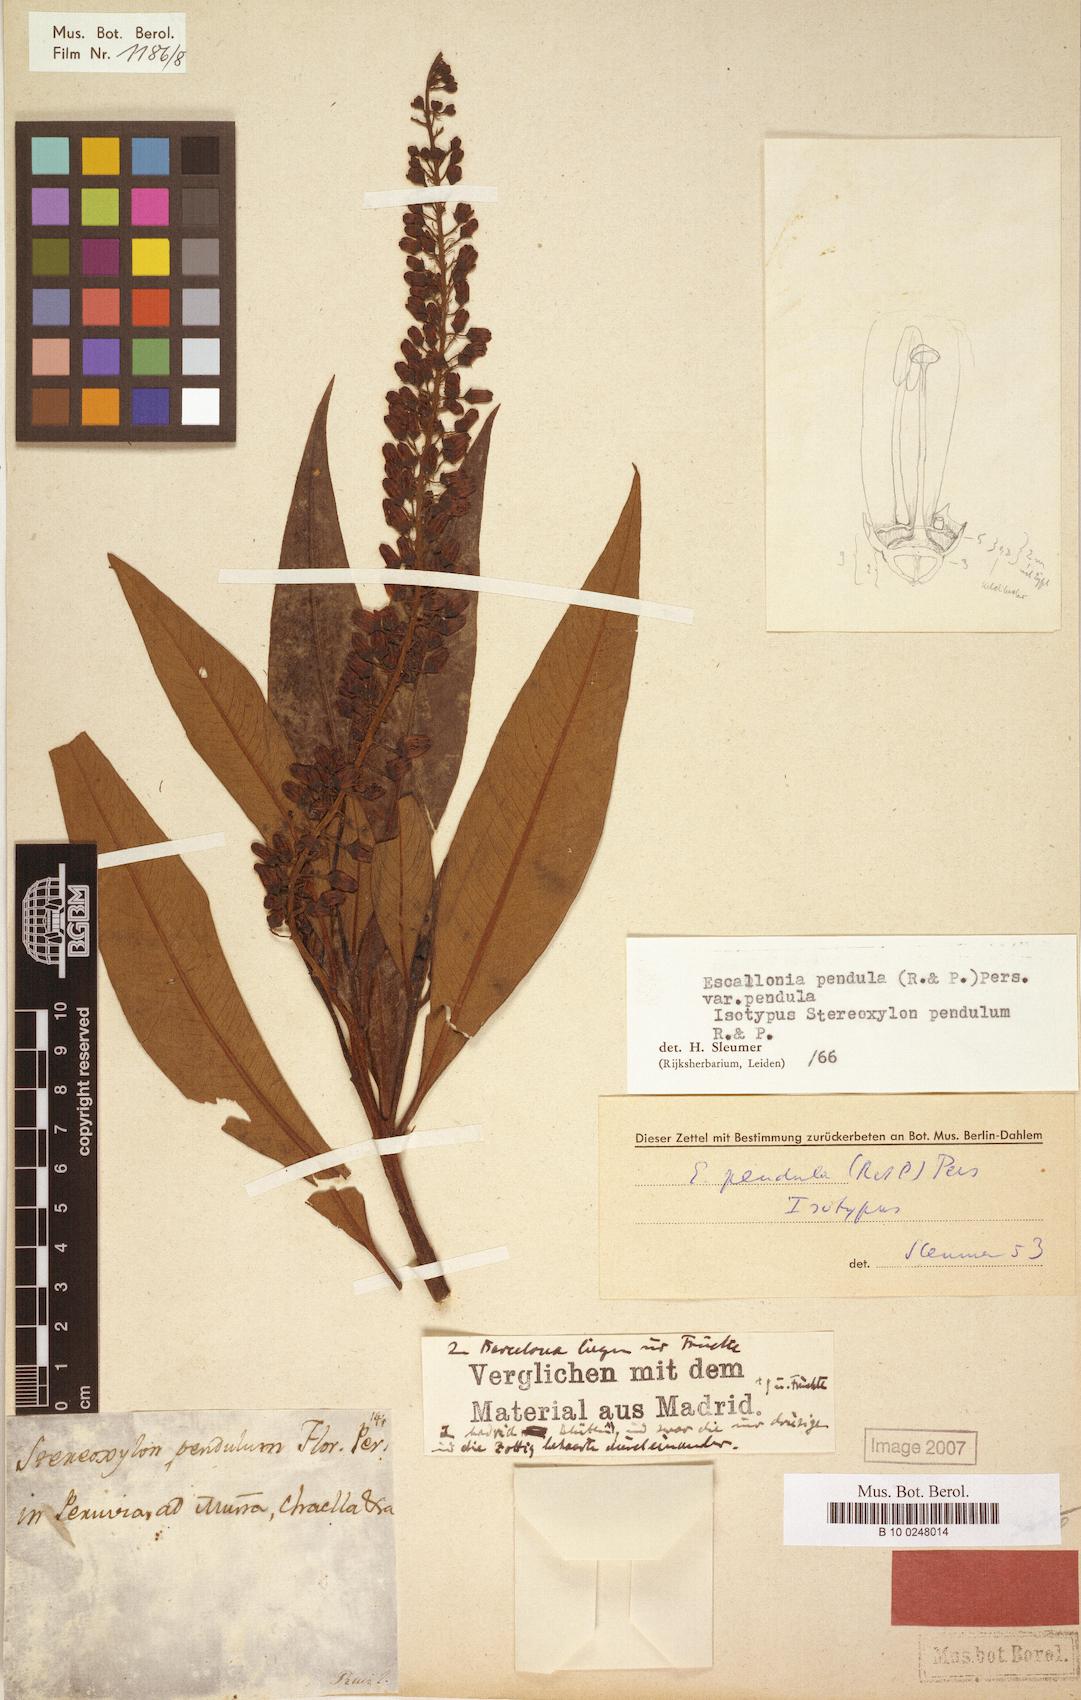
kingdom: Plantae
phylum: Tracheophyta
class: Magnoliopsida
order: Escalloniales
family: Escalloniaceae
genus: Escallonia
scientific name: Escallonia pendula
